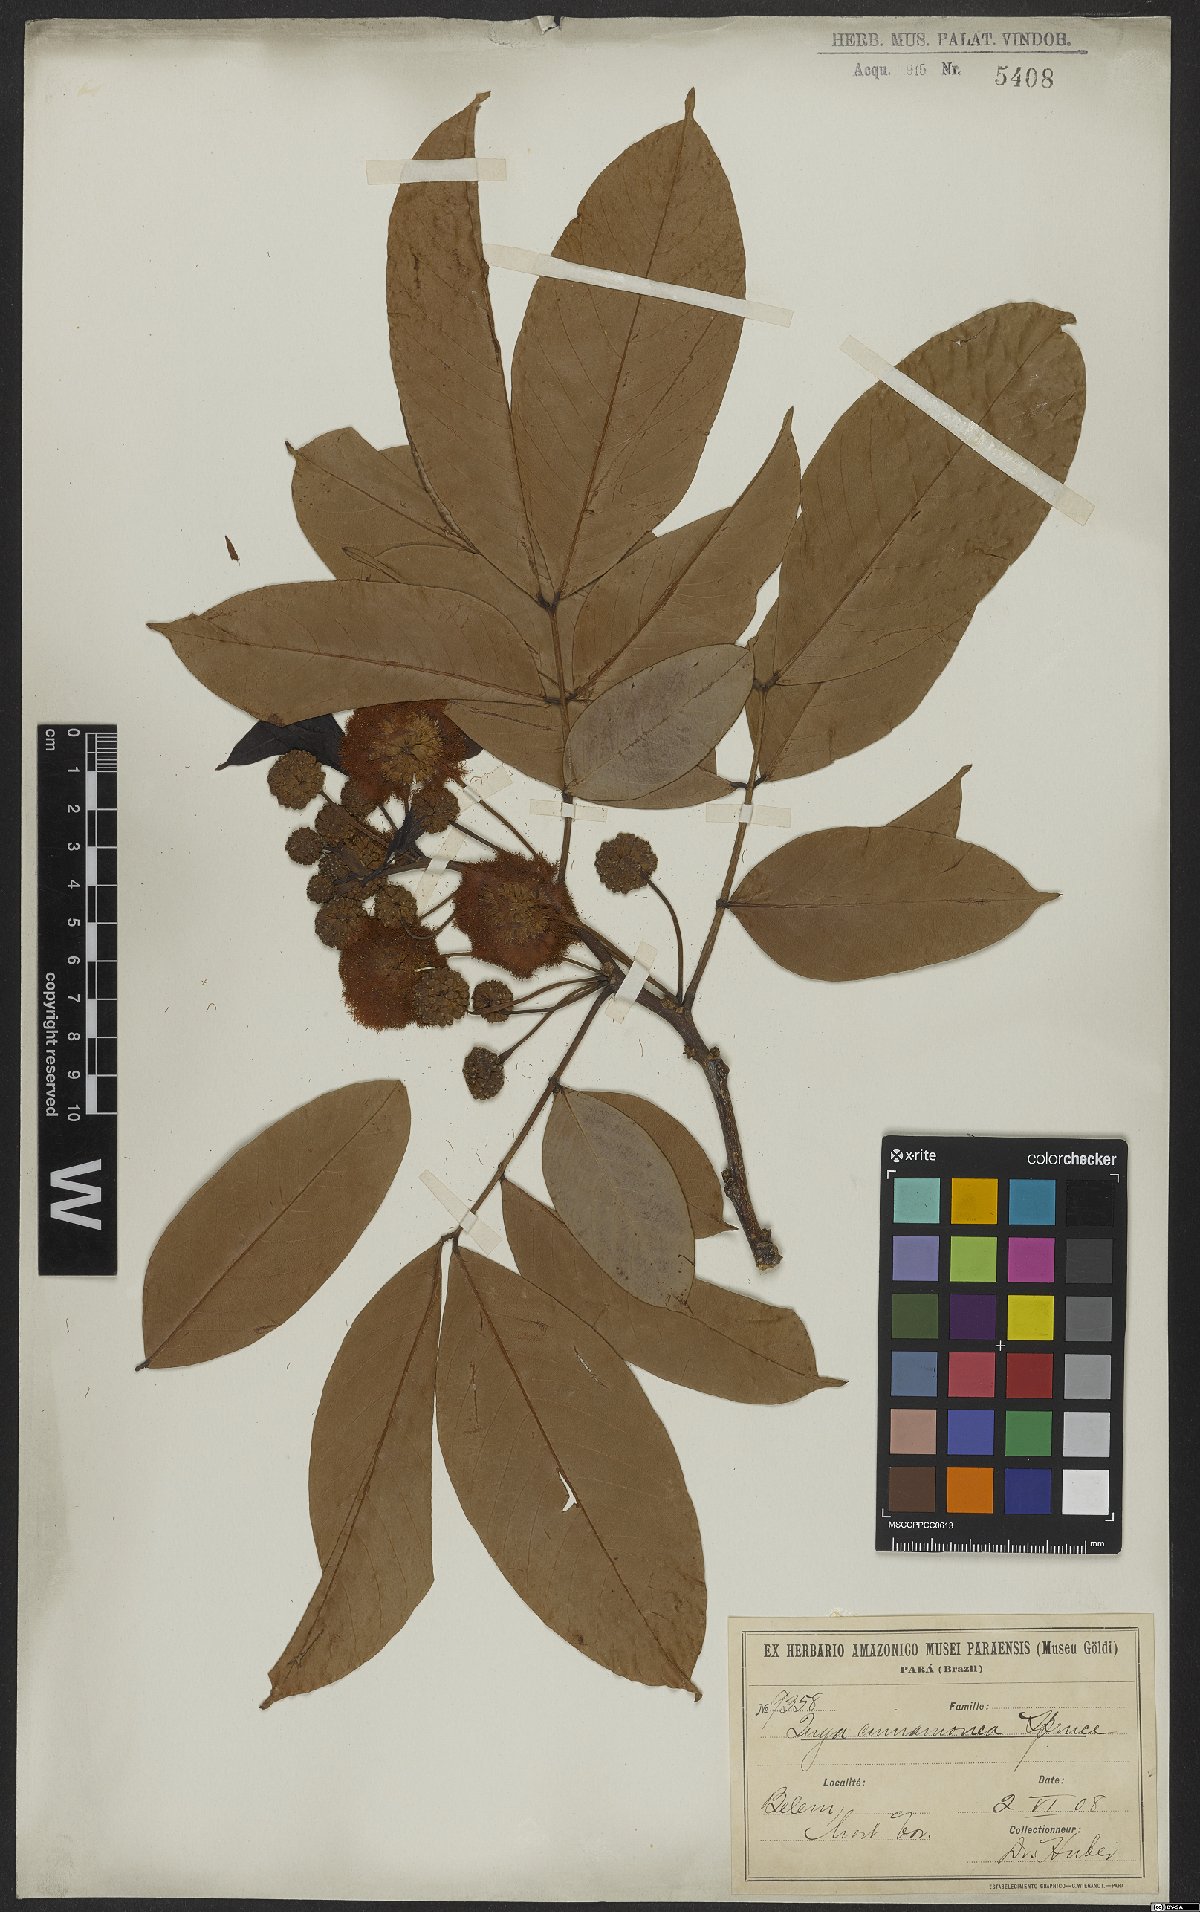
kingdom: Plantae
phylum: Tracheophyta
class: Magnoliopsida
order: Fabales
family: Fabaceae
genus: Inga
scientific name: Inga cinnamomea
